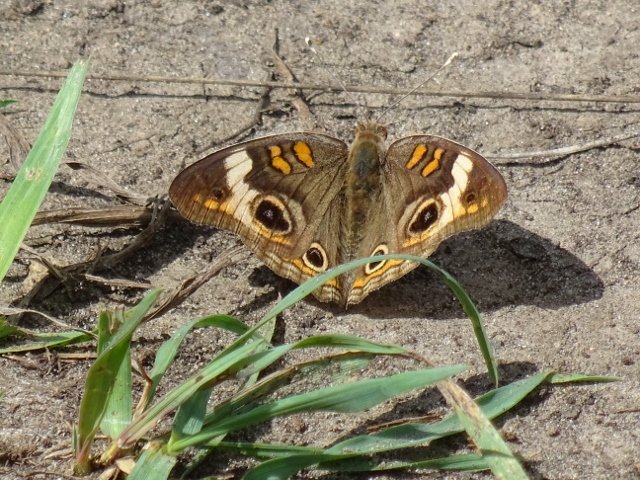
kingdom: Animalia
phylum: Arthropoda
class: Insecta
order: Lepidoptera
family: Nymphalidae
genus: Junonia
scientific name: Junonia coenia
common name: Common Buckeye
